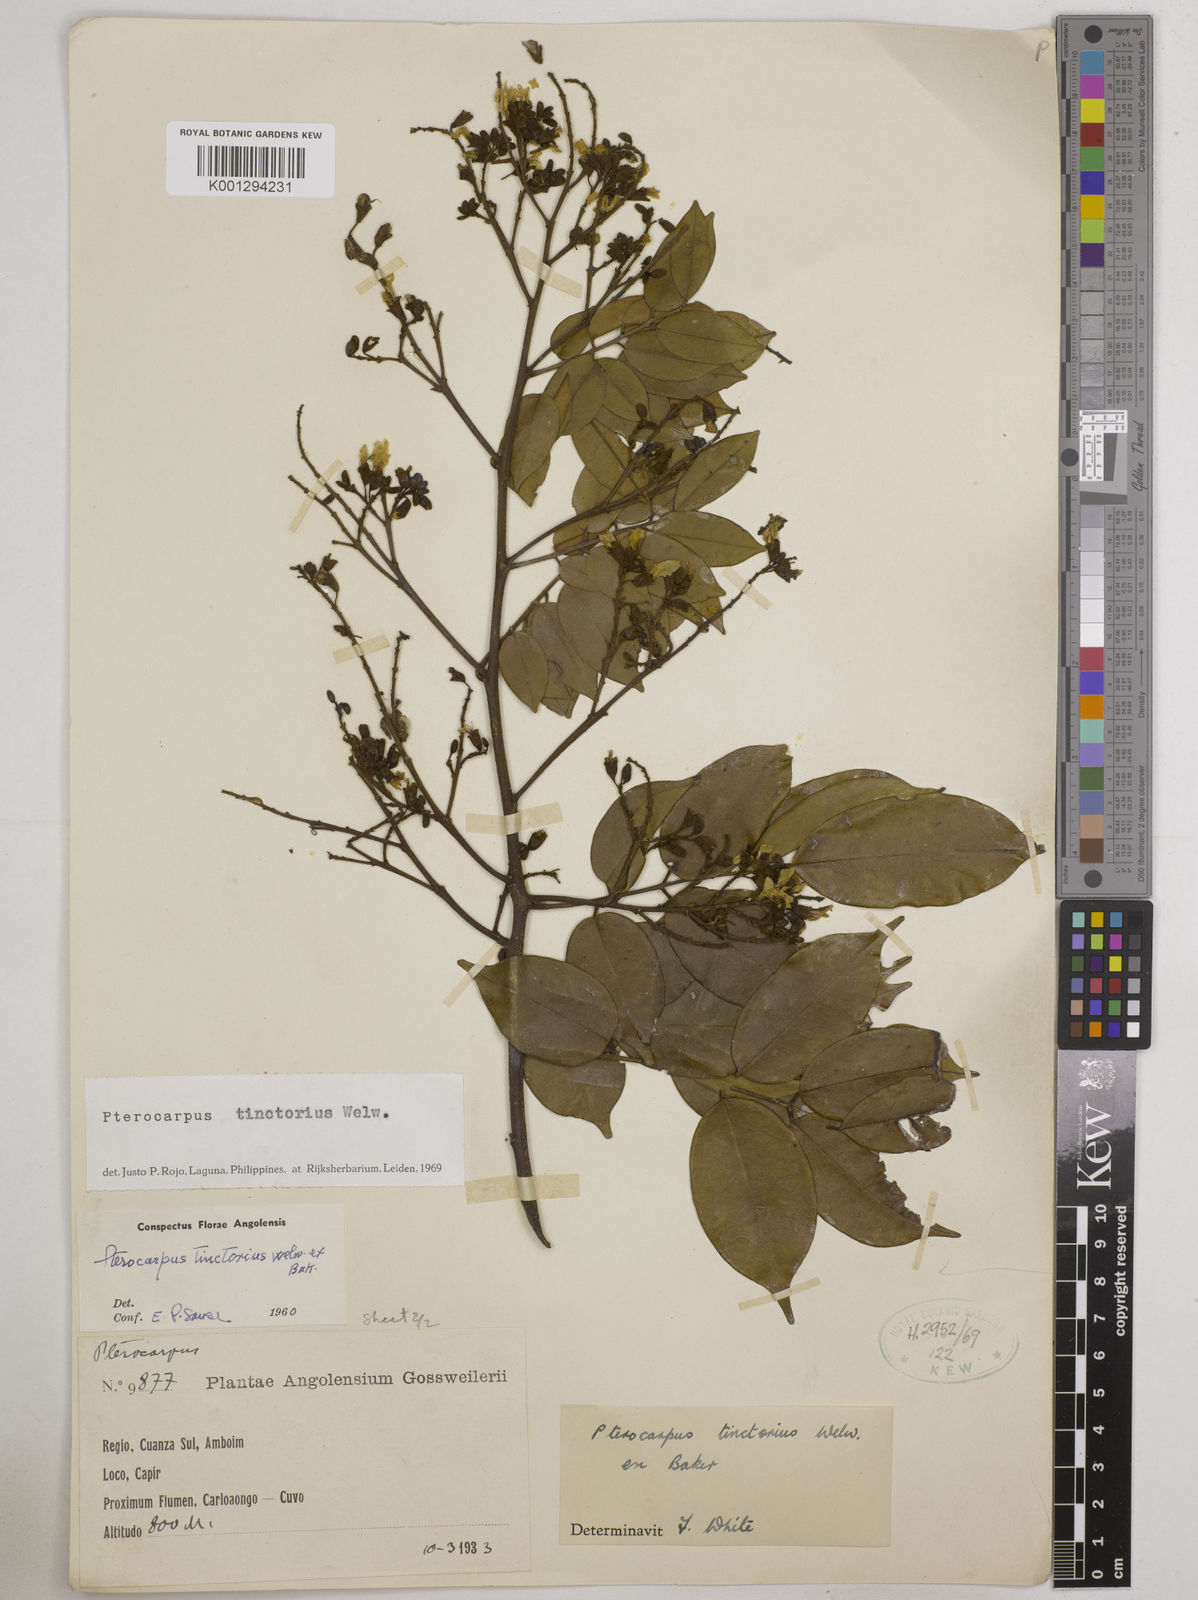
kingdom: Plantae
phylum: Tracheophyta
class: Magnoliopsida
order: Fabales
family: Fabaceae
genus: Pterocarpus
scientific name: Pterocarpus tinctorius
